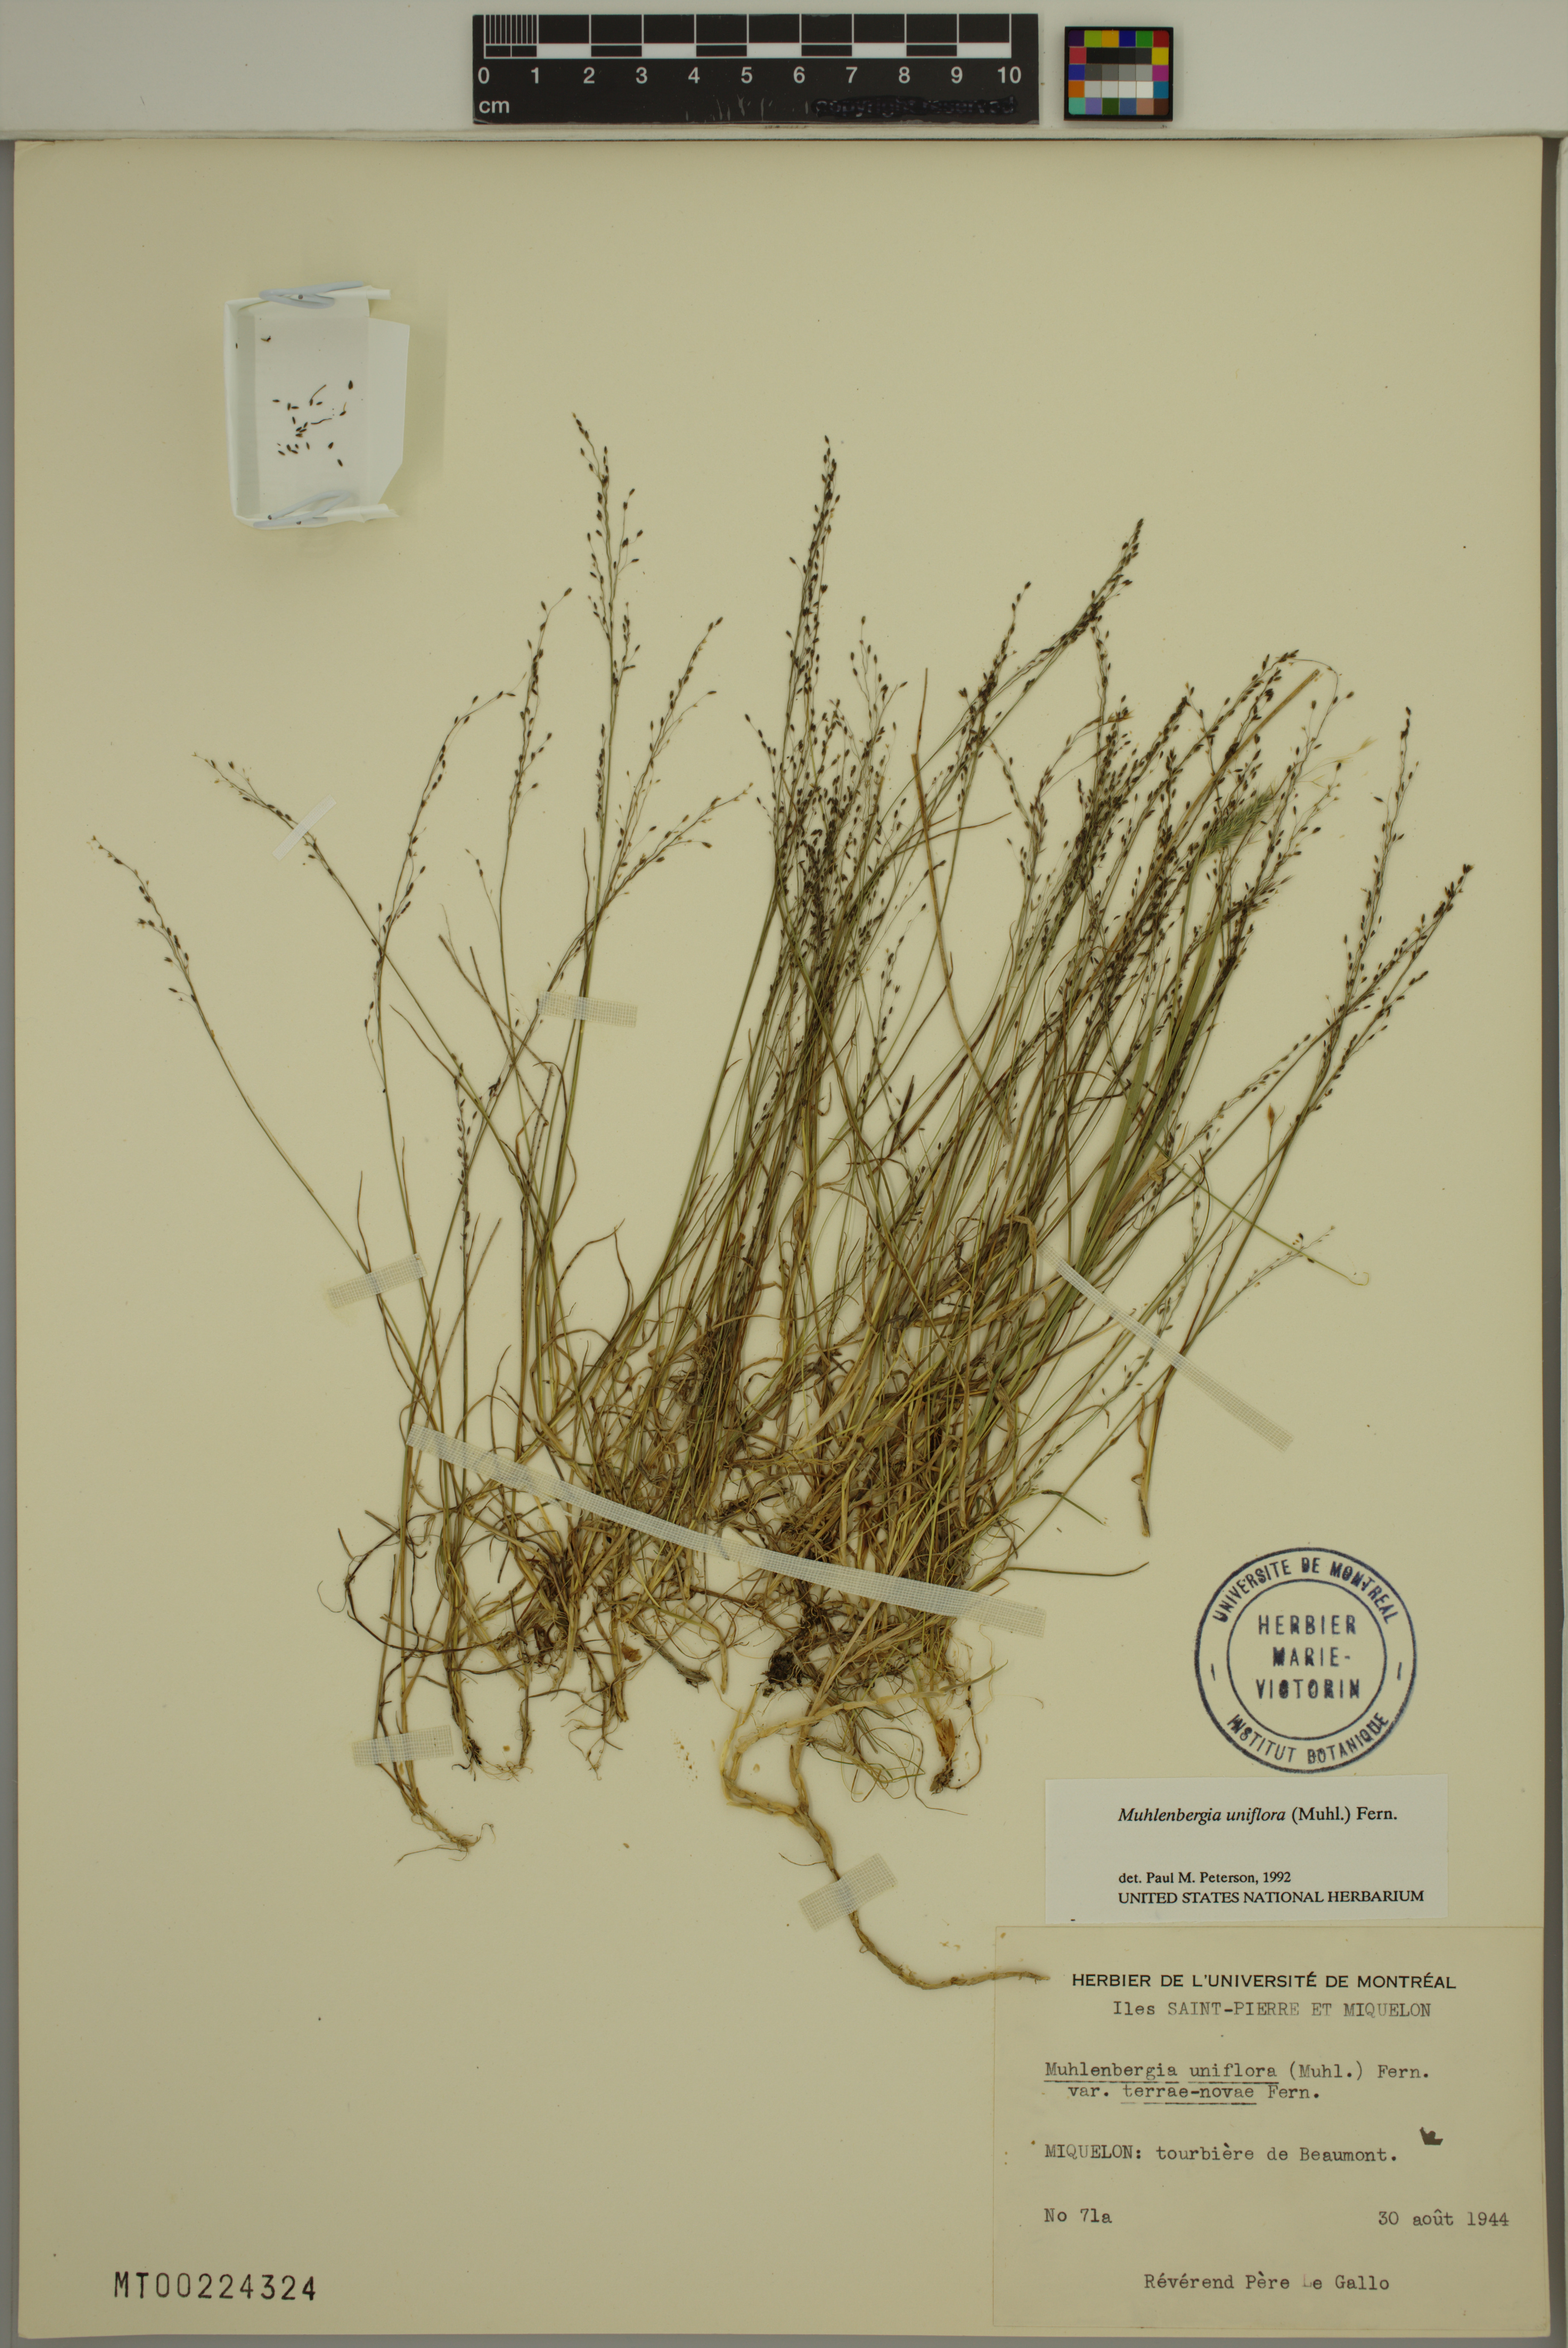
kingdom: Plantae
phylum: Tracheophyta
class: Liliopsida
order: Poales
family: Poaceae
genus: Muhlenbergia
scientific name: Muhlenbergia uniflora
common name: Bog muhly
